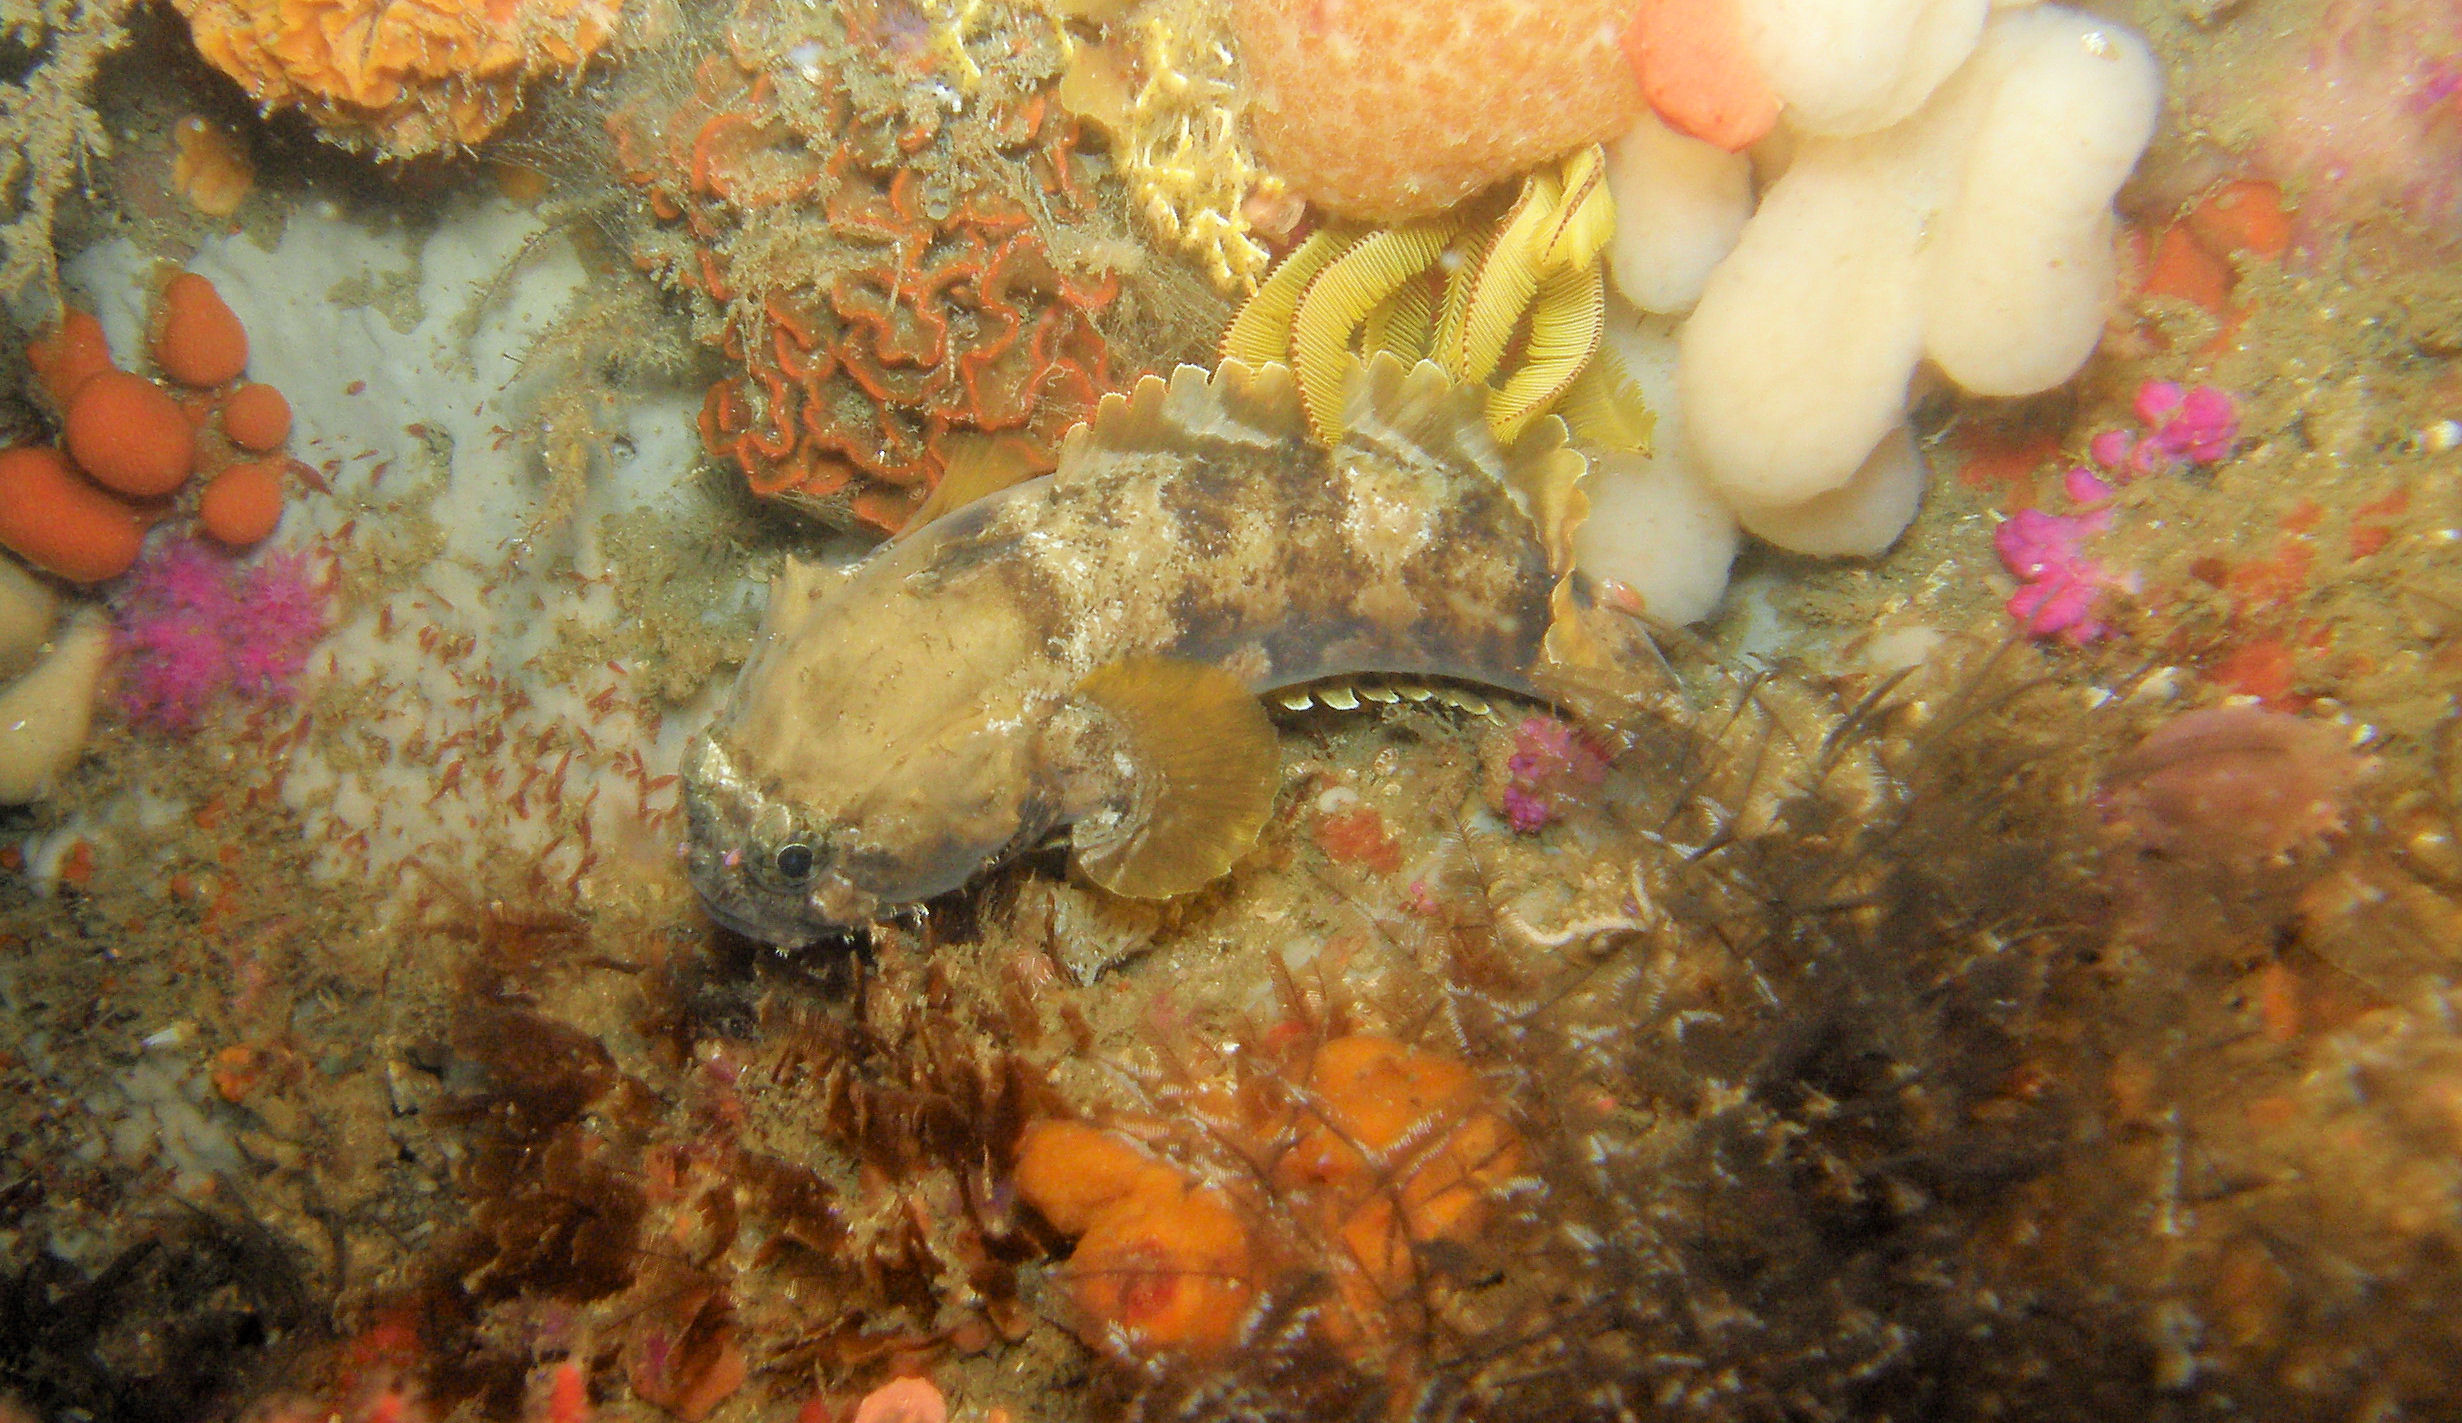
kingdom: Animalia
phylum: Chordata
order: Batrachoidiformes
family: Batrachoididae
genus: Austrobatrachus
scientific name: Austrobatrachus foedus
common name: Puzzled toadfish
